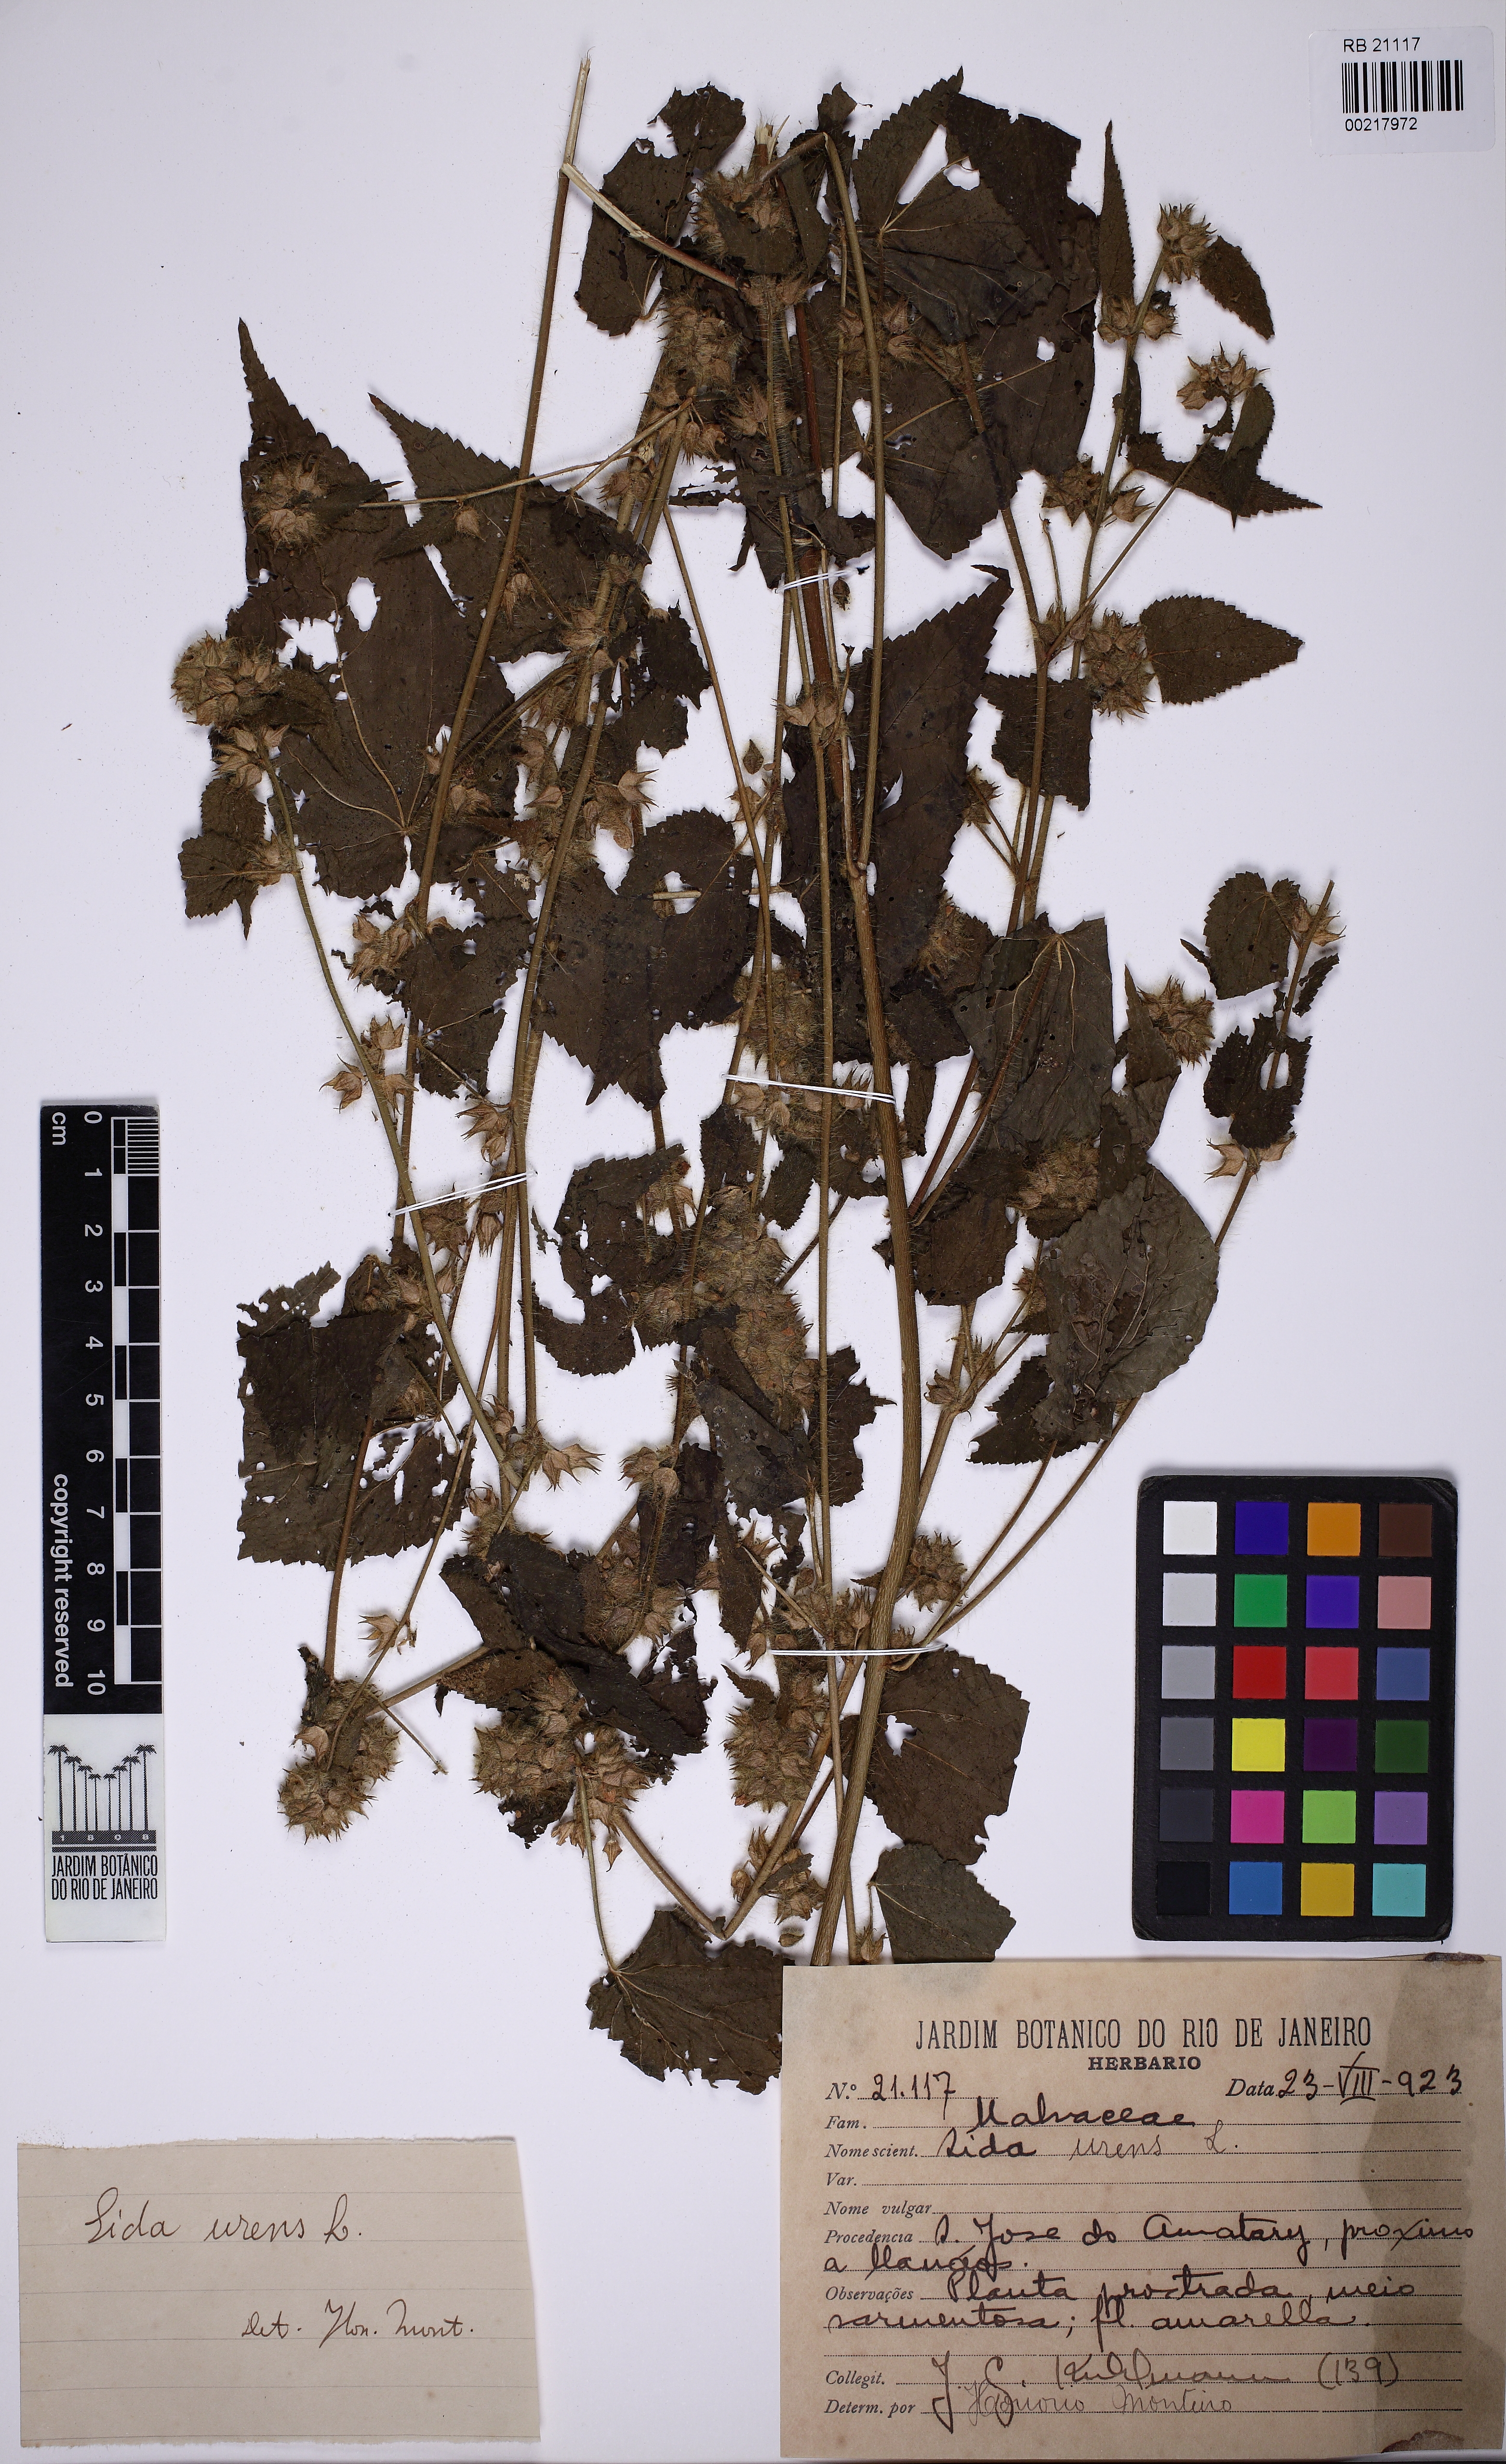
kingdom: Plantae
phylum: Tracheophyta
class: Magnoliopsida
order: Malvales
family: Malvaceae
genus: Sida
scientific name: Sida urens
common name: Tropical fanpetals
